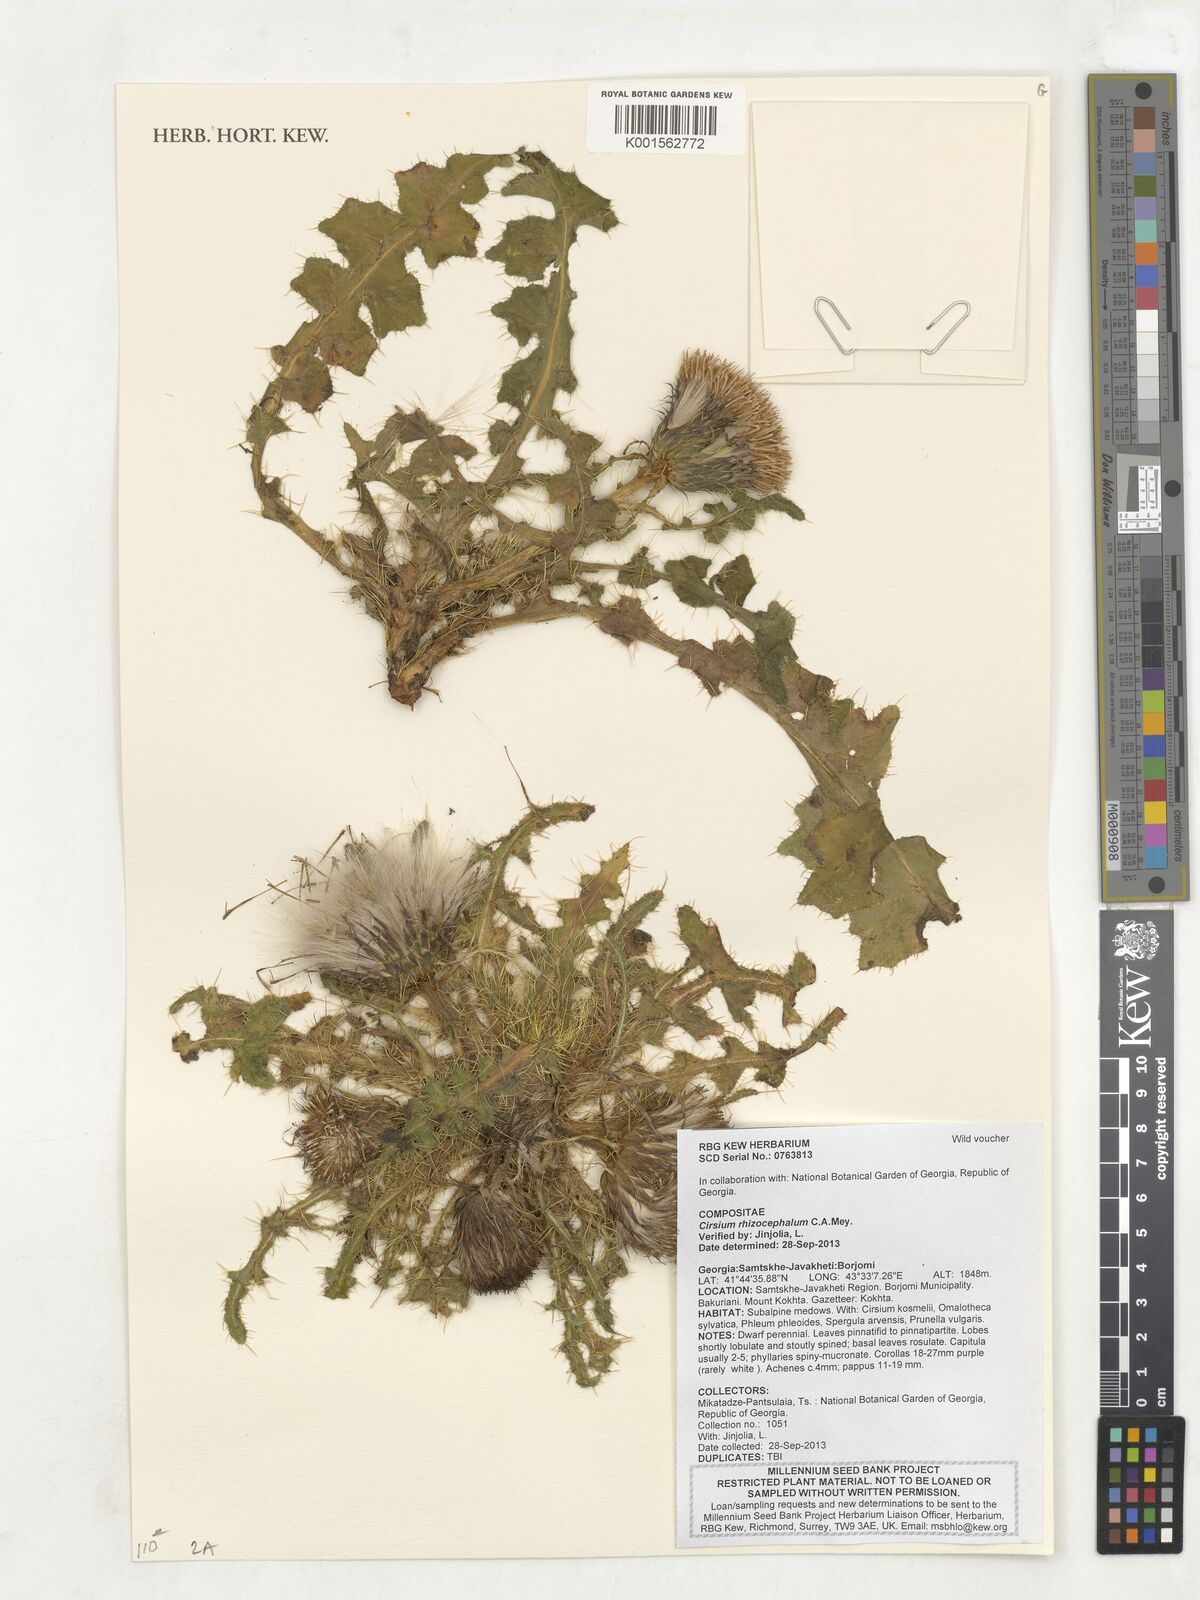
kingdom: Plantae
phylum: Tracheophyta
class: Magnoliopsida
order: Asterales
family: Asteraceae
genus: Cirsium
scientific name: Cirsium rhizocephalum
